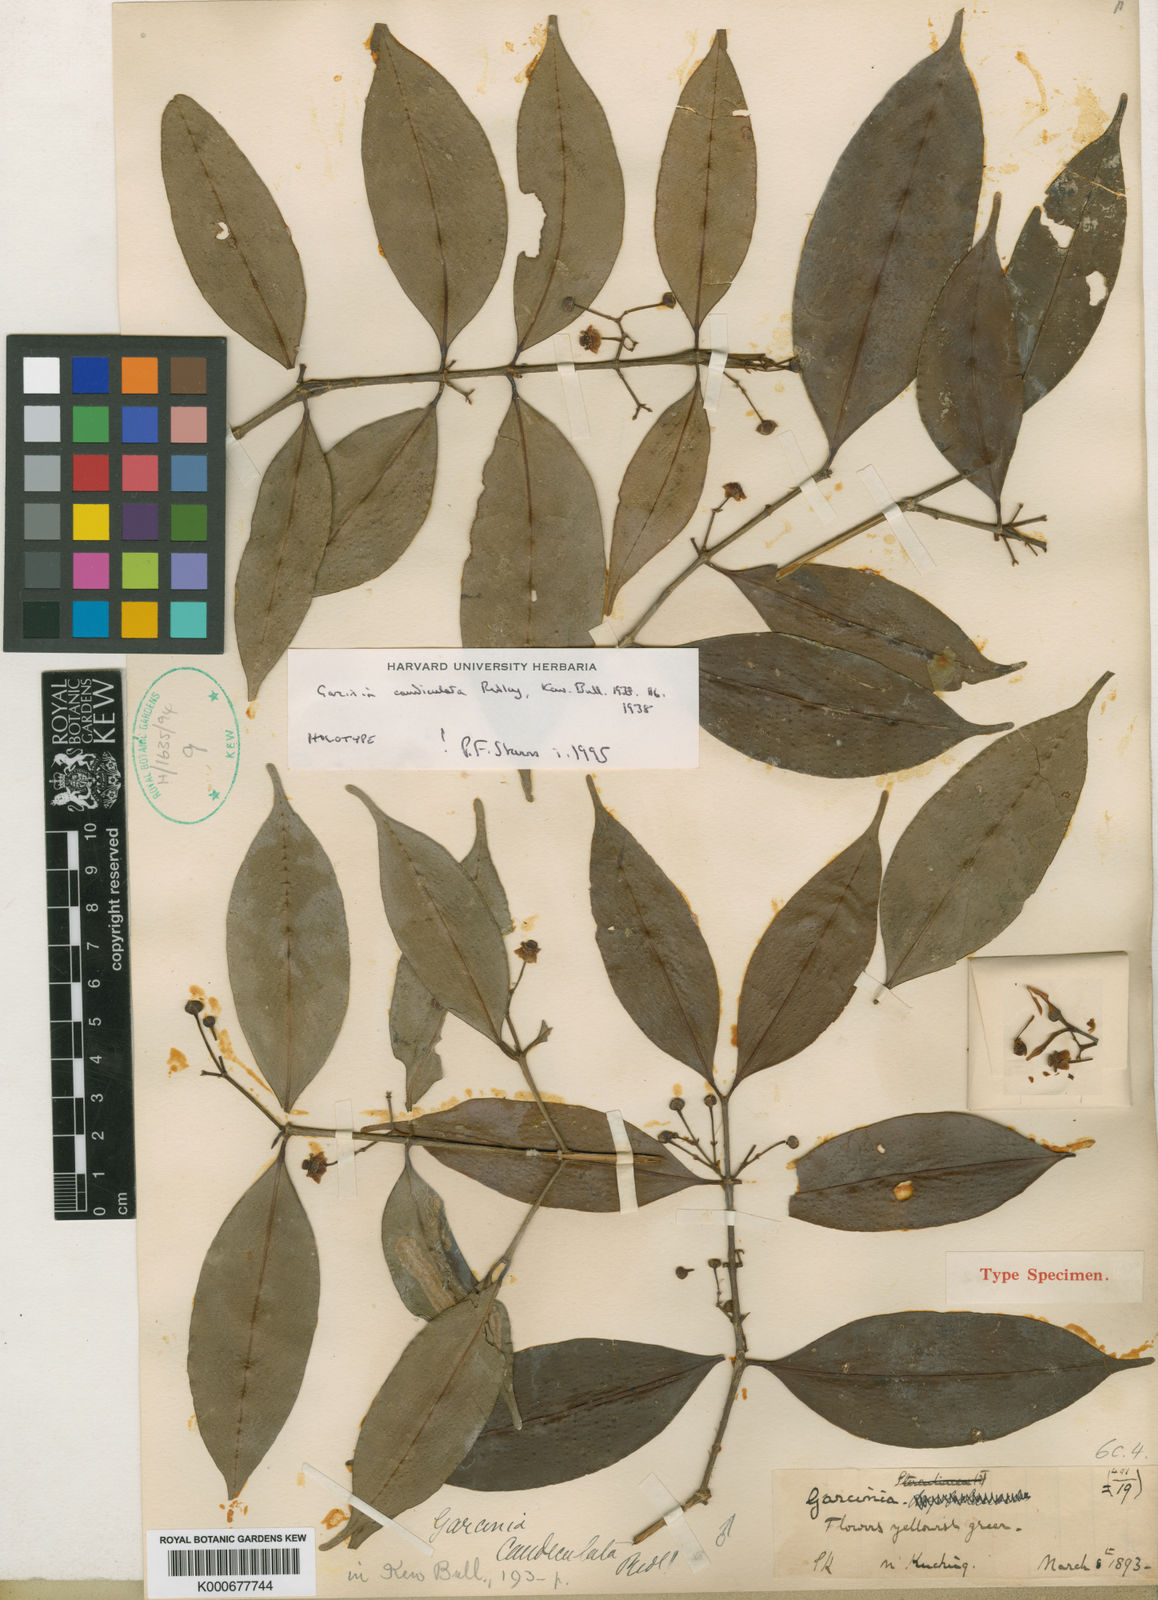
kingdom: Plantae
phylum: Tracheophyta
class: Magnoliopsida
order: Malpighiales
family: Clusiaceae
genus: Garcinia
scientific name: Garcinia caudiculata
